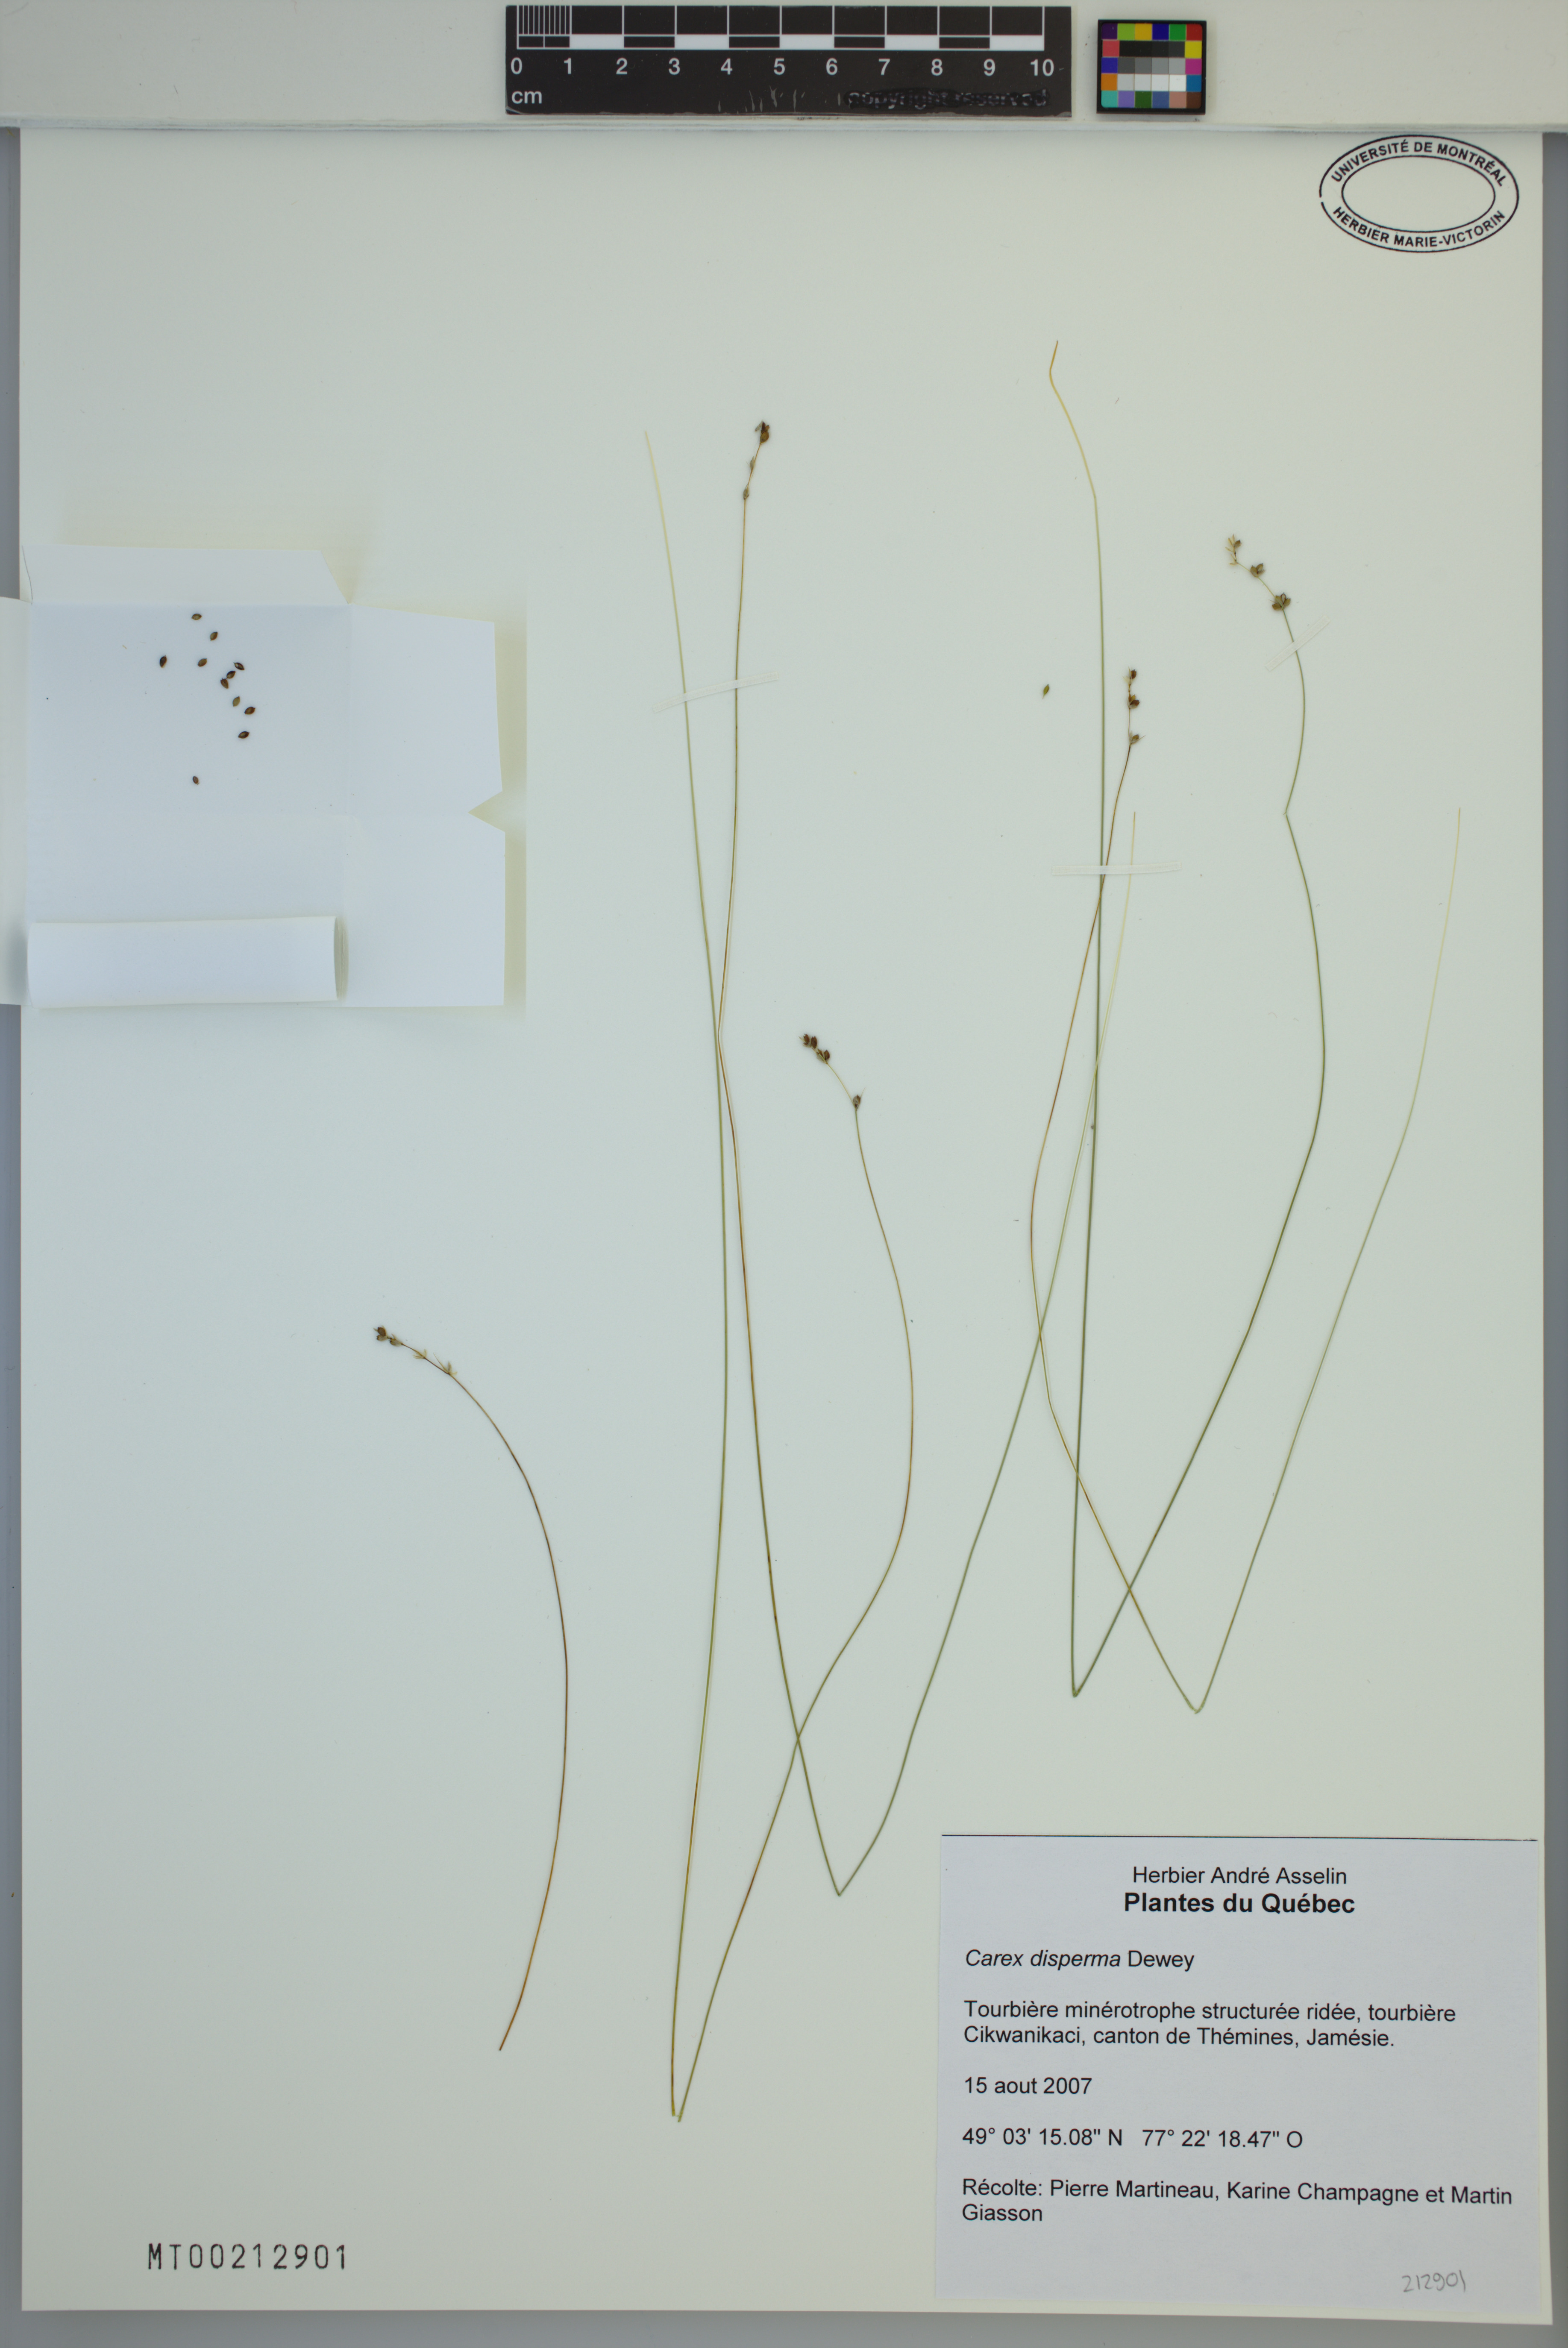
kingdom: Plantae
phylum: Tracheophyta
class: Liliopsida
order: Poales
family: Cyperaceae
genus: Carex
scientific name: Carex disperma
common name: Short-leaved sedge
